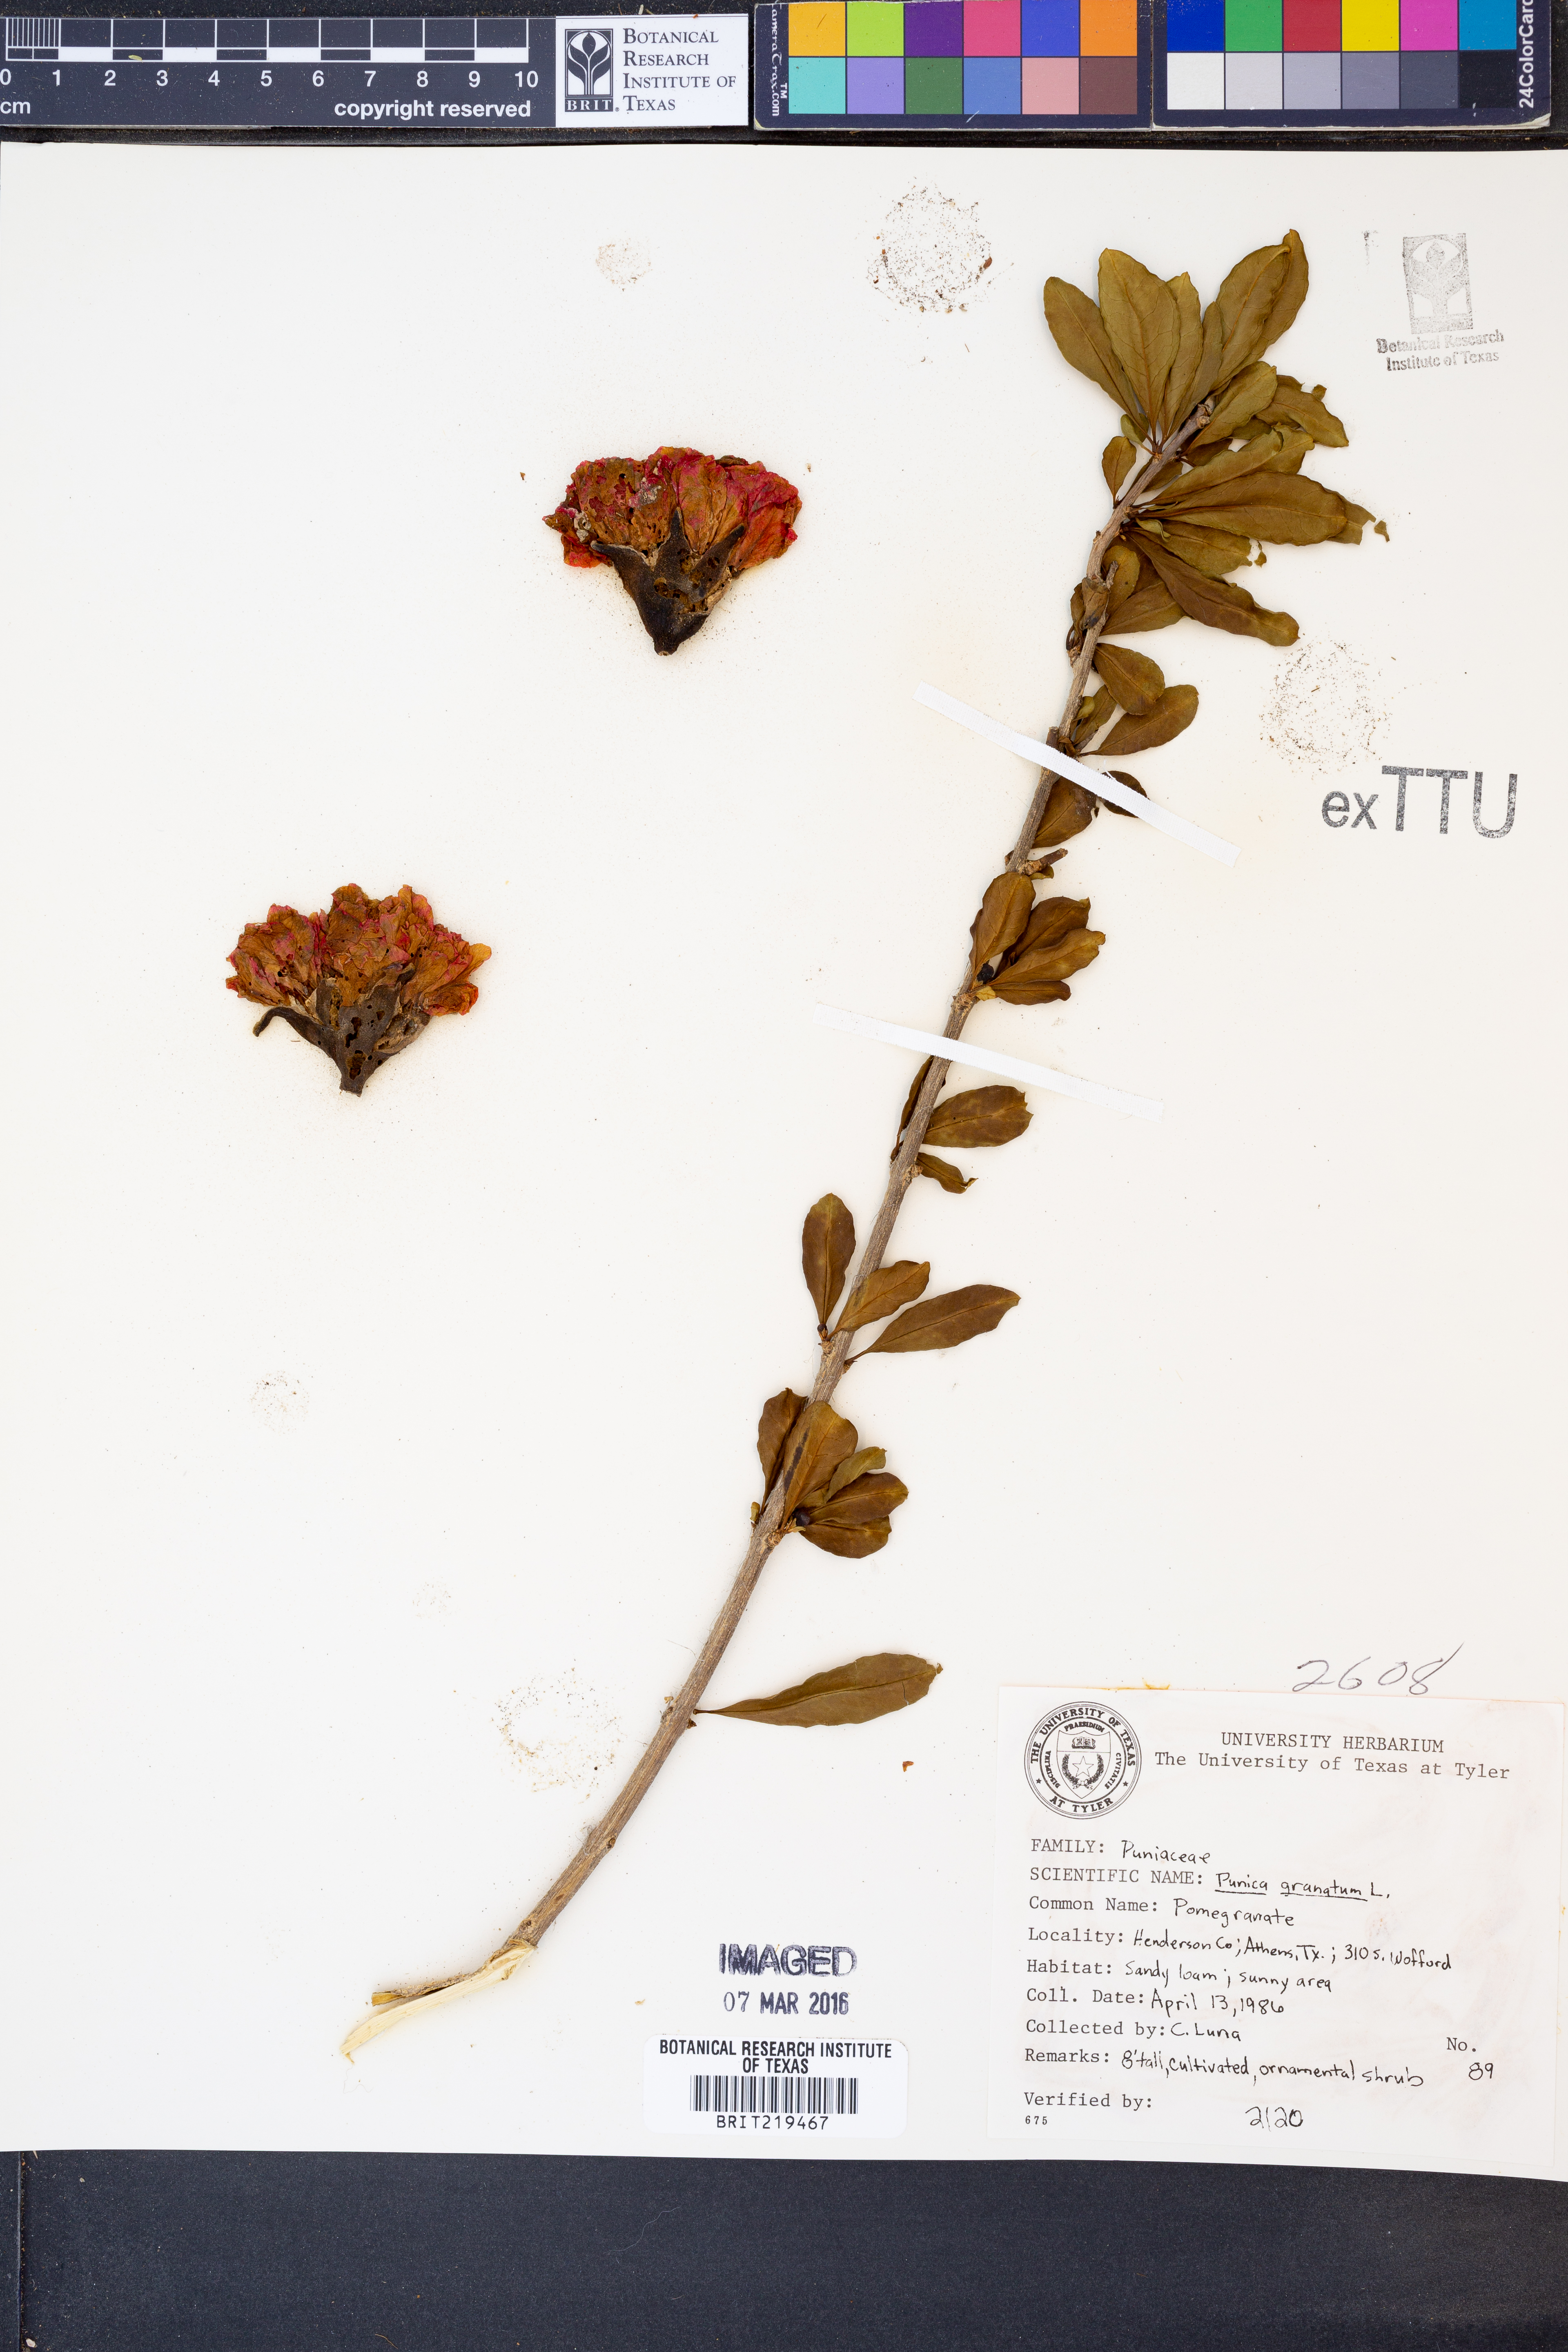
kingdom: Plantae
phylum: Tracheophyta
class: Magnoliopsida
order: Myrtales
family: Lythraceae
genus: Punica
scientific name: Punica granatum
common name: Pomegranate
